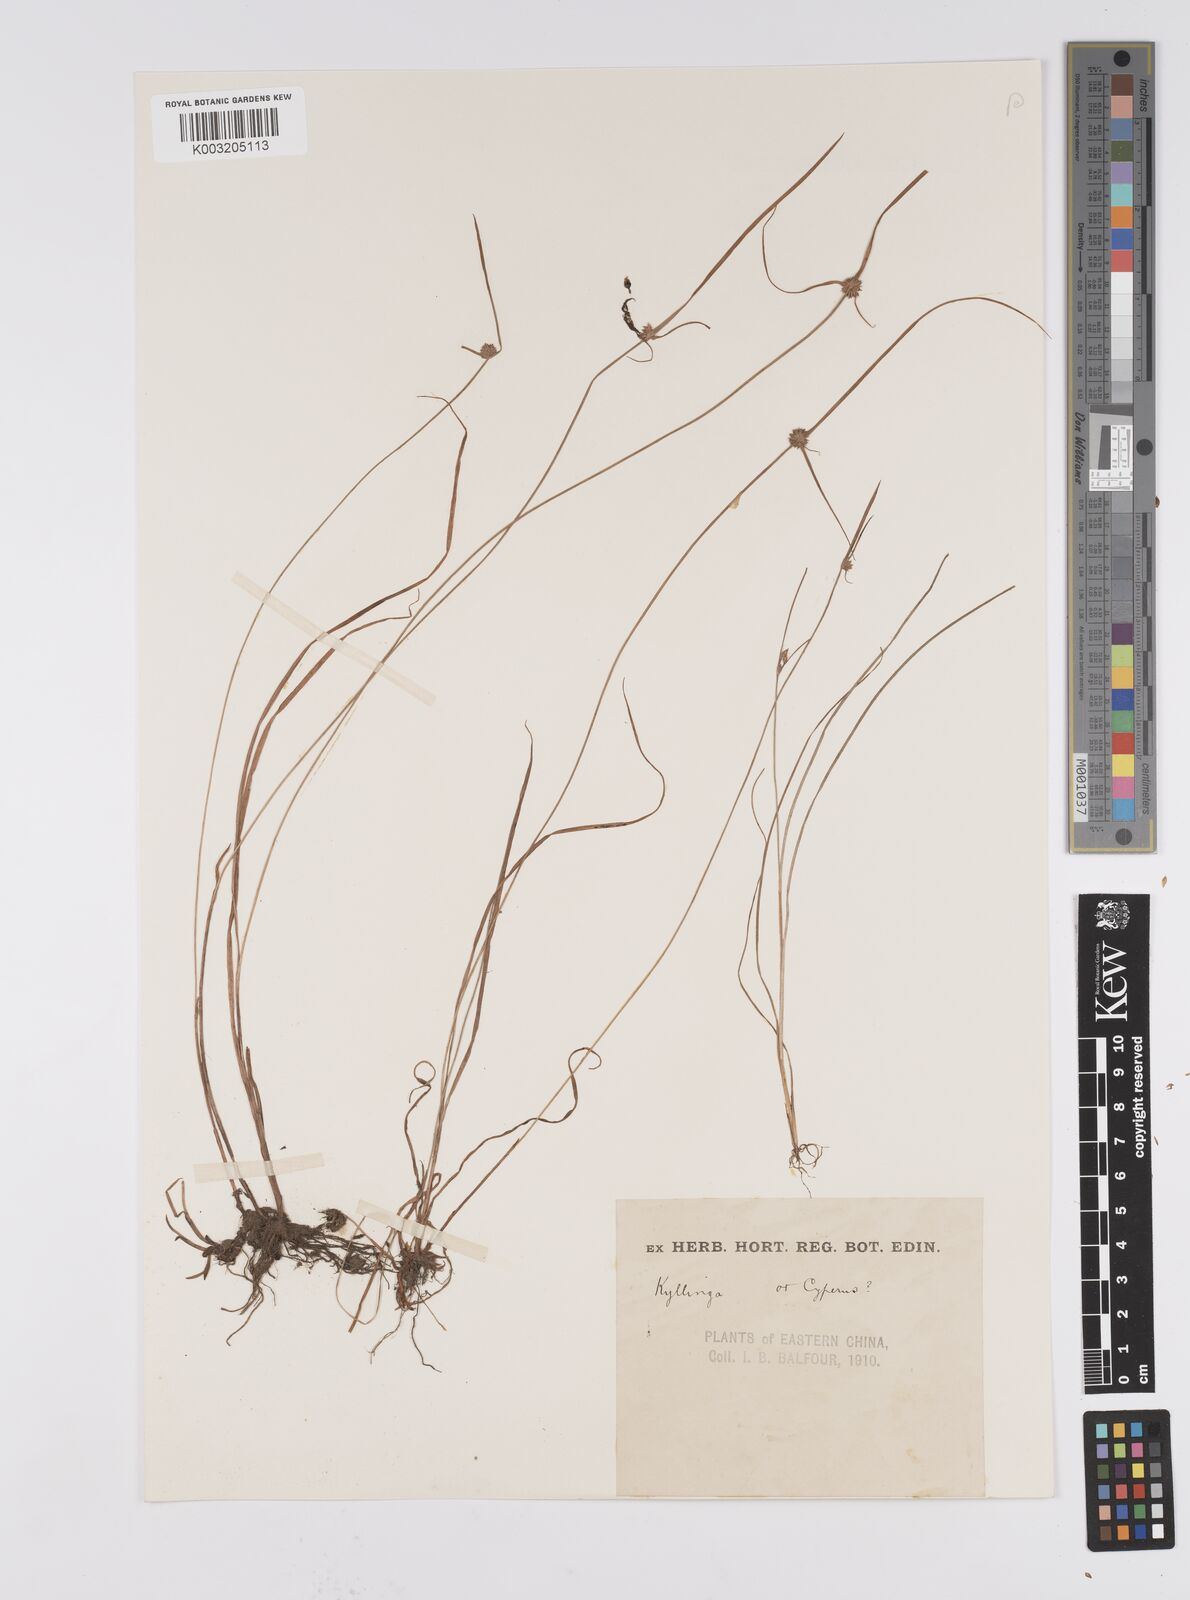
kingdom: Plantae
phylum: Tracheophyta
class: Liliopsida
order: Poales
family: Cyperaceae
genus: Cyperus
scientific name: Cyperus brevifolius
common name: Globe kyllinga
